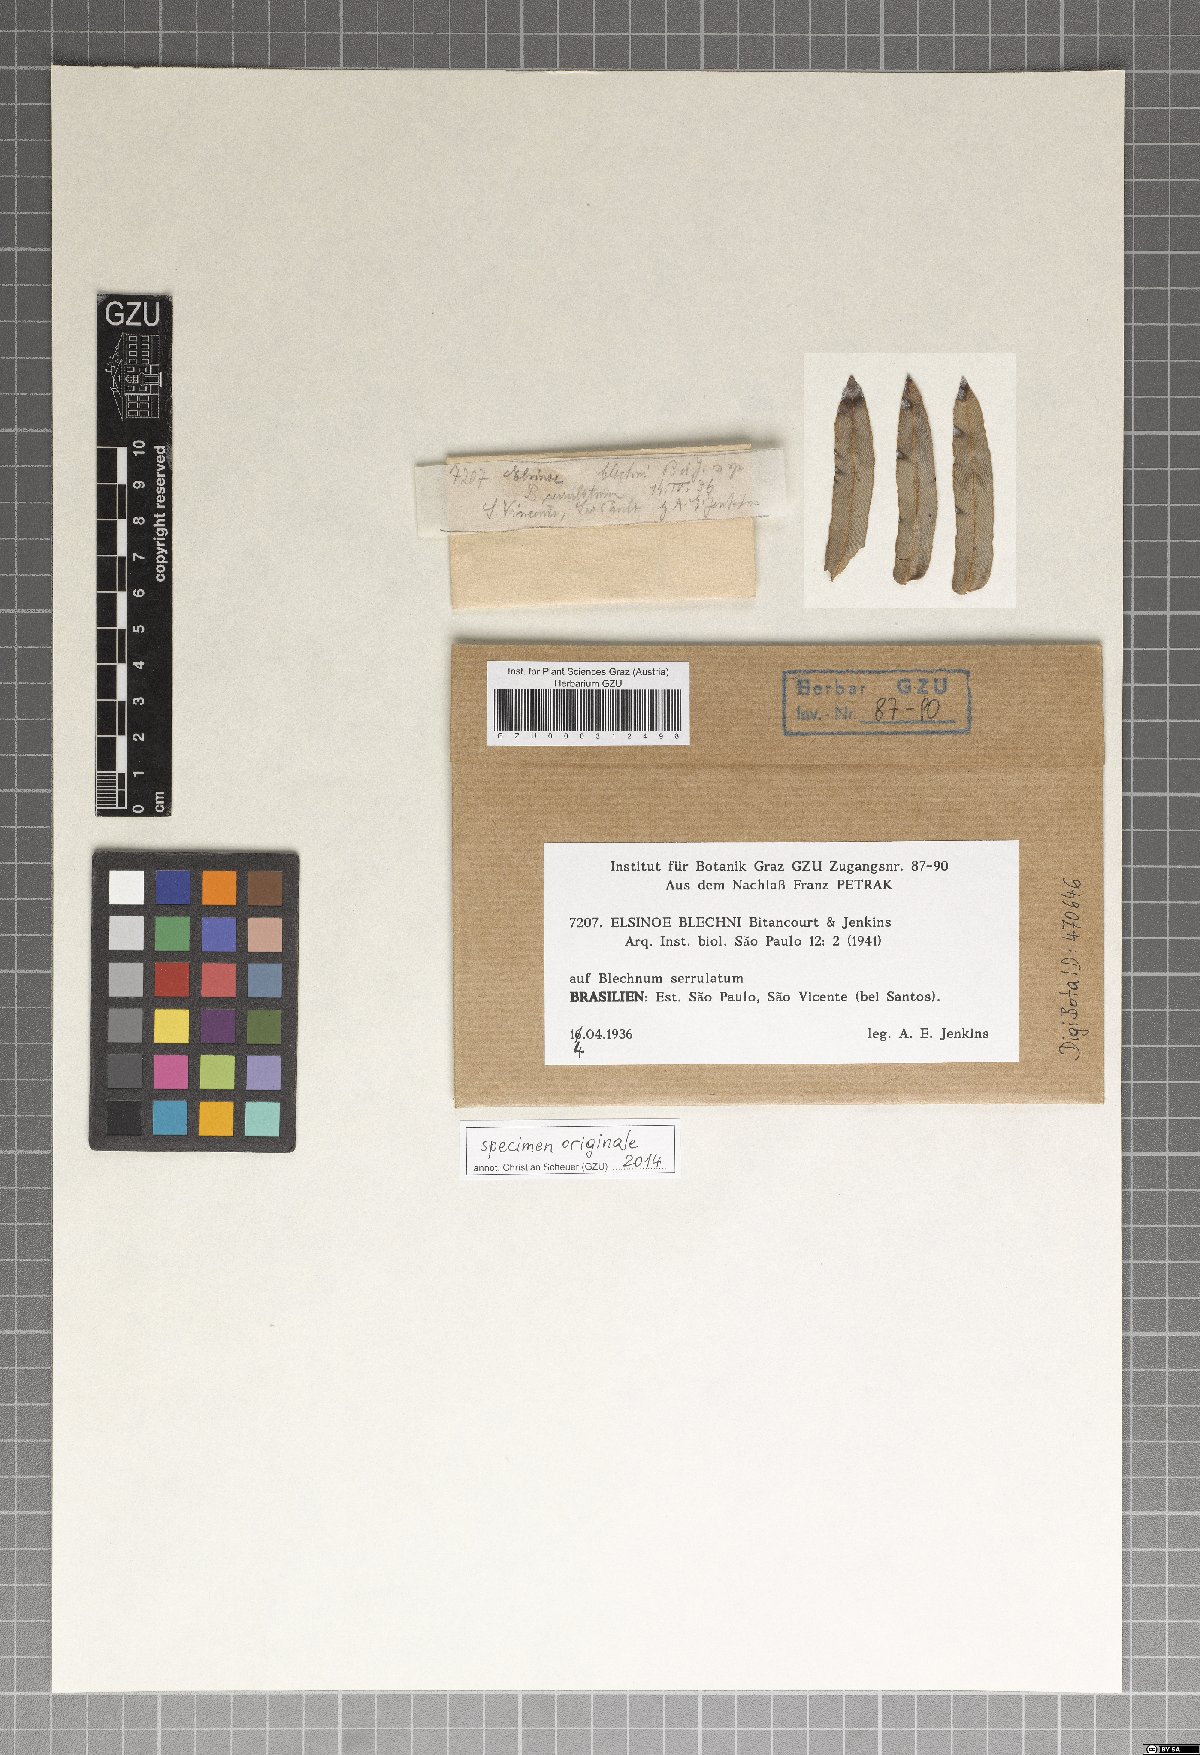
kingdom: Fungi
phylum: Ascomycota
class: Dothideomycetes
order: Myriangiales
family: Elsinoaceae
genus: Elsinoe
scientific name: Elsinoe blechni
